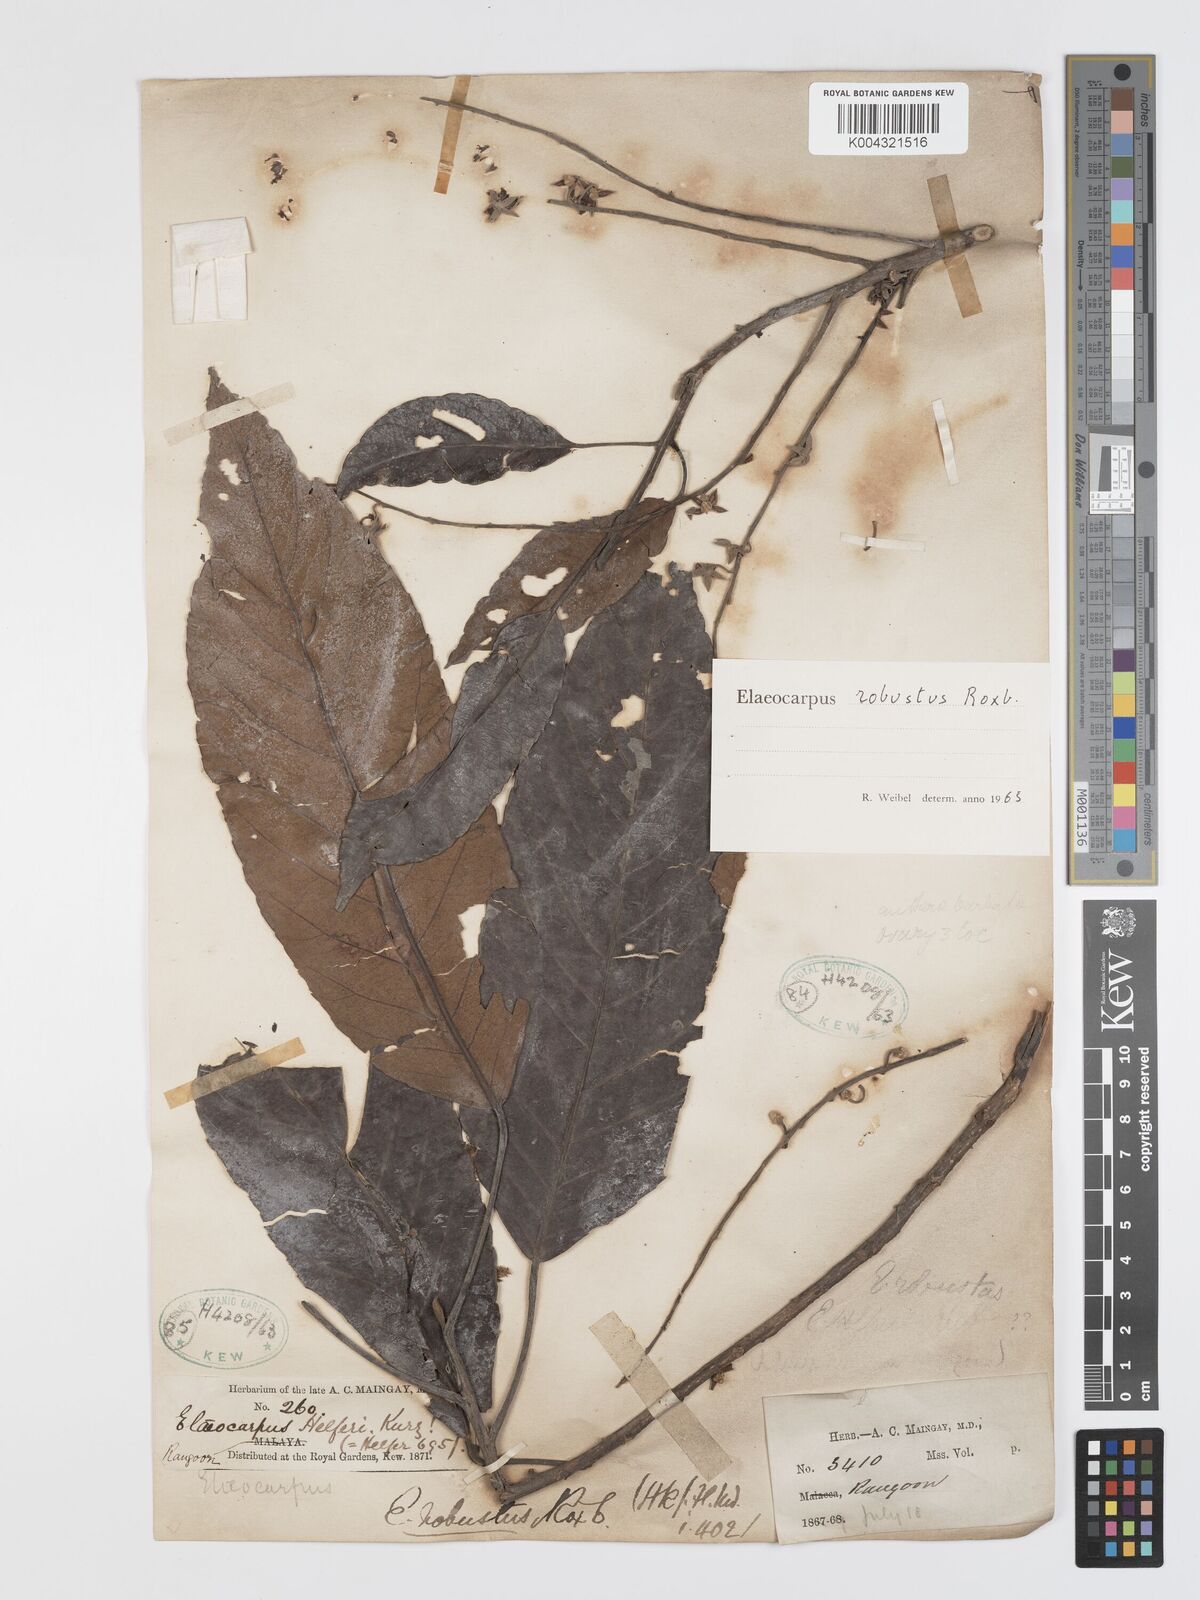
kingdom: Plantae
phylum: Tracheophyta
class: Magnoliopsida
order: Oxalidales
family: Elaeocarpaceae
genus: Elaeocarpus
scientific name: Elaeocarpus robustus
